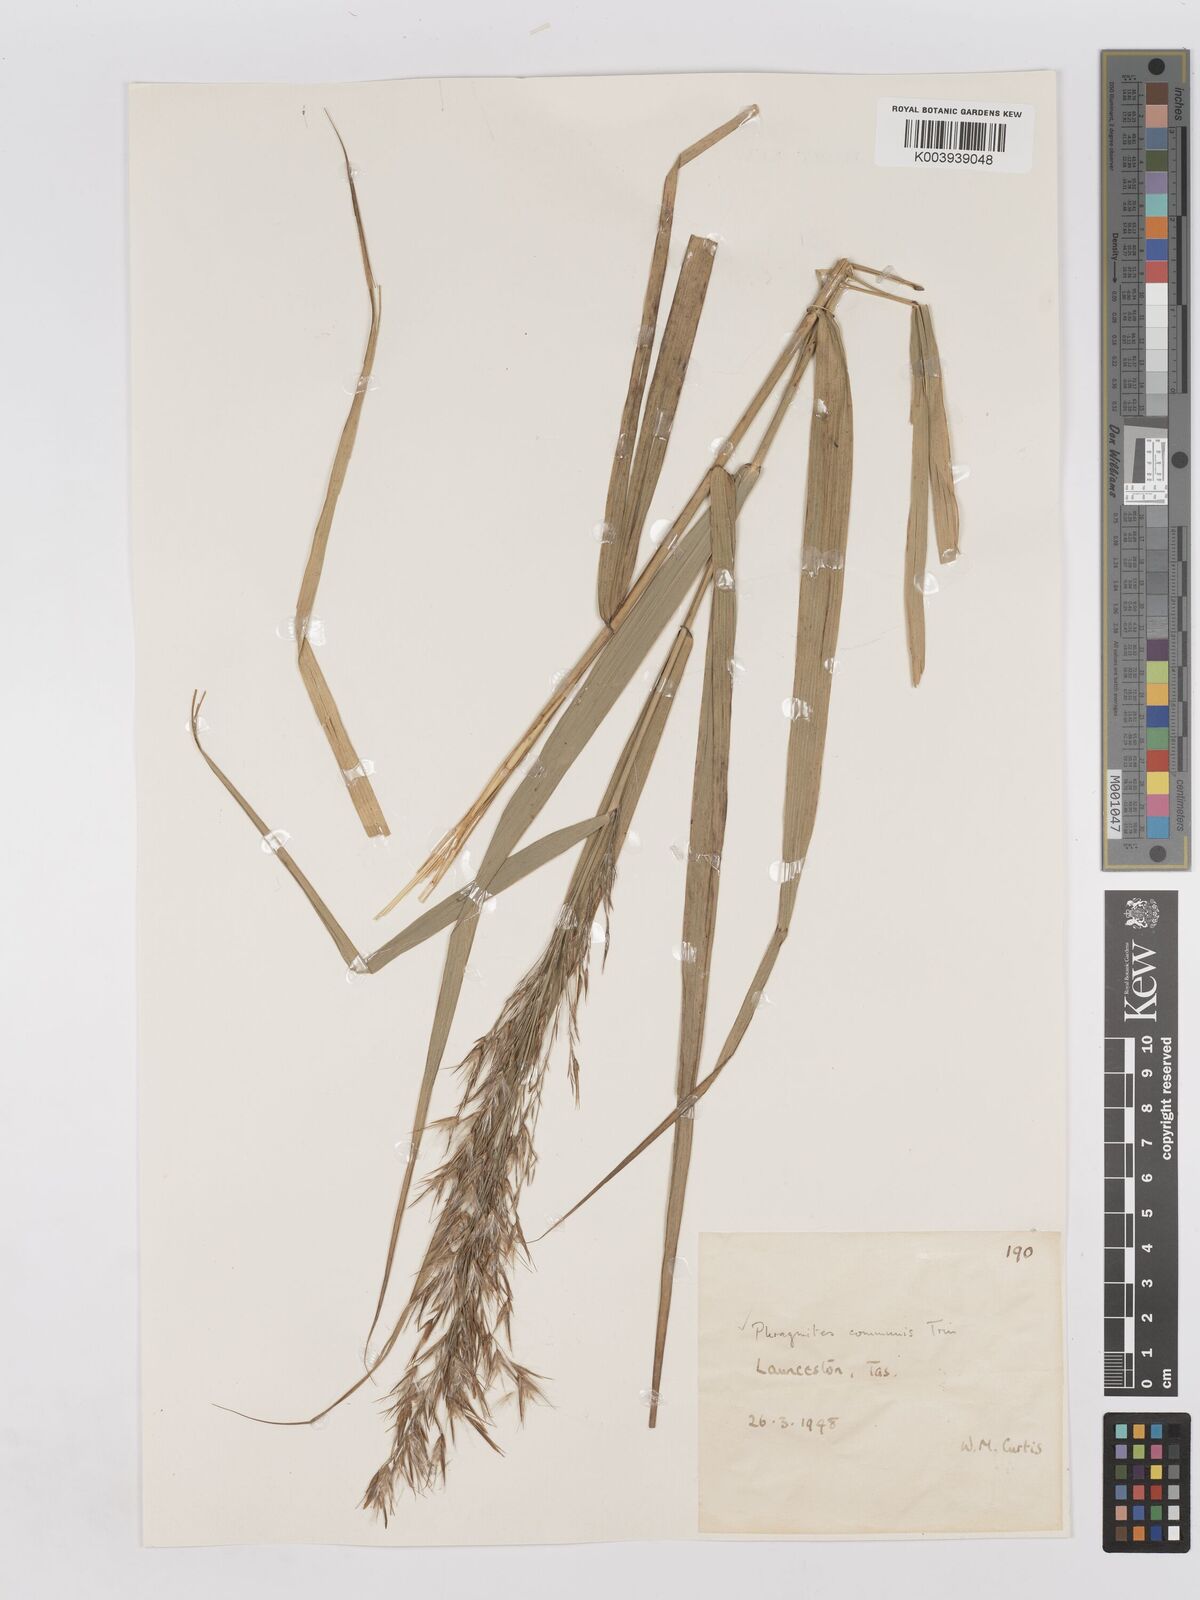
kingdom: Plantae
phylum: Tracheophyta
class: Liliopsida
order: Poales
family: Poaceae
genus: Phragmites
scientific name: Phragmites australis
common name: Common reed
